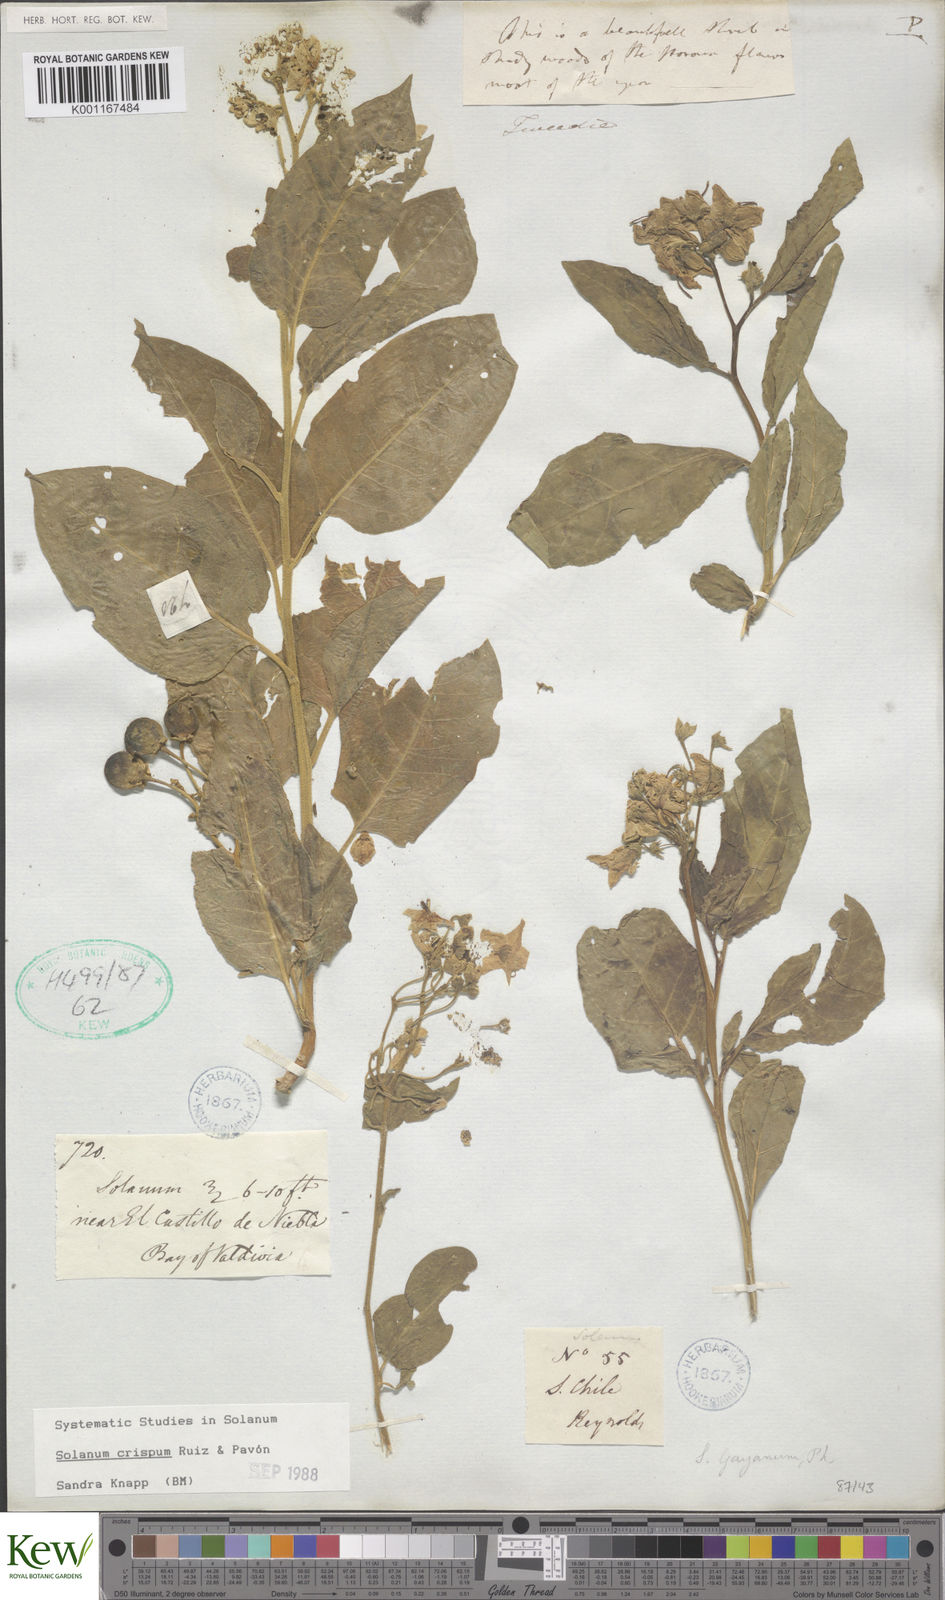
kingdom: Plantae
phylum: Tracheophyta
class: Magnoliopsida
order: Solanales
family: Solanaceae
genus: Solanum
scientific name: Solanum crispum
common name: Chilean nightshade
